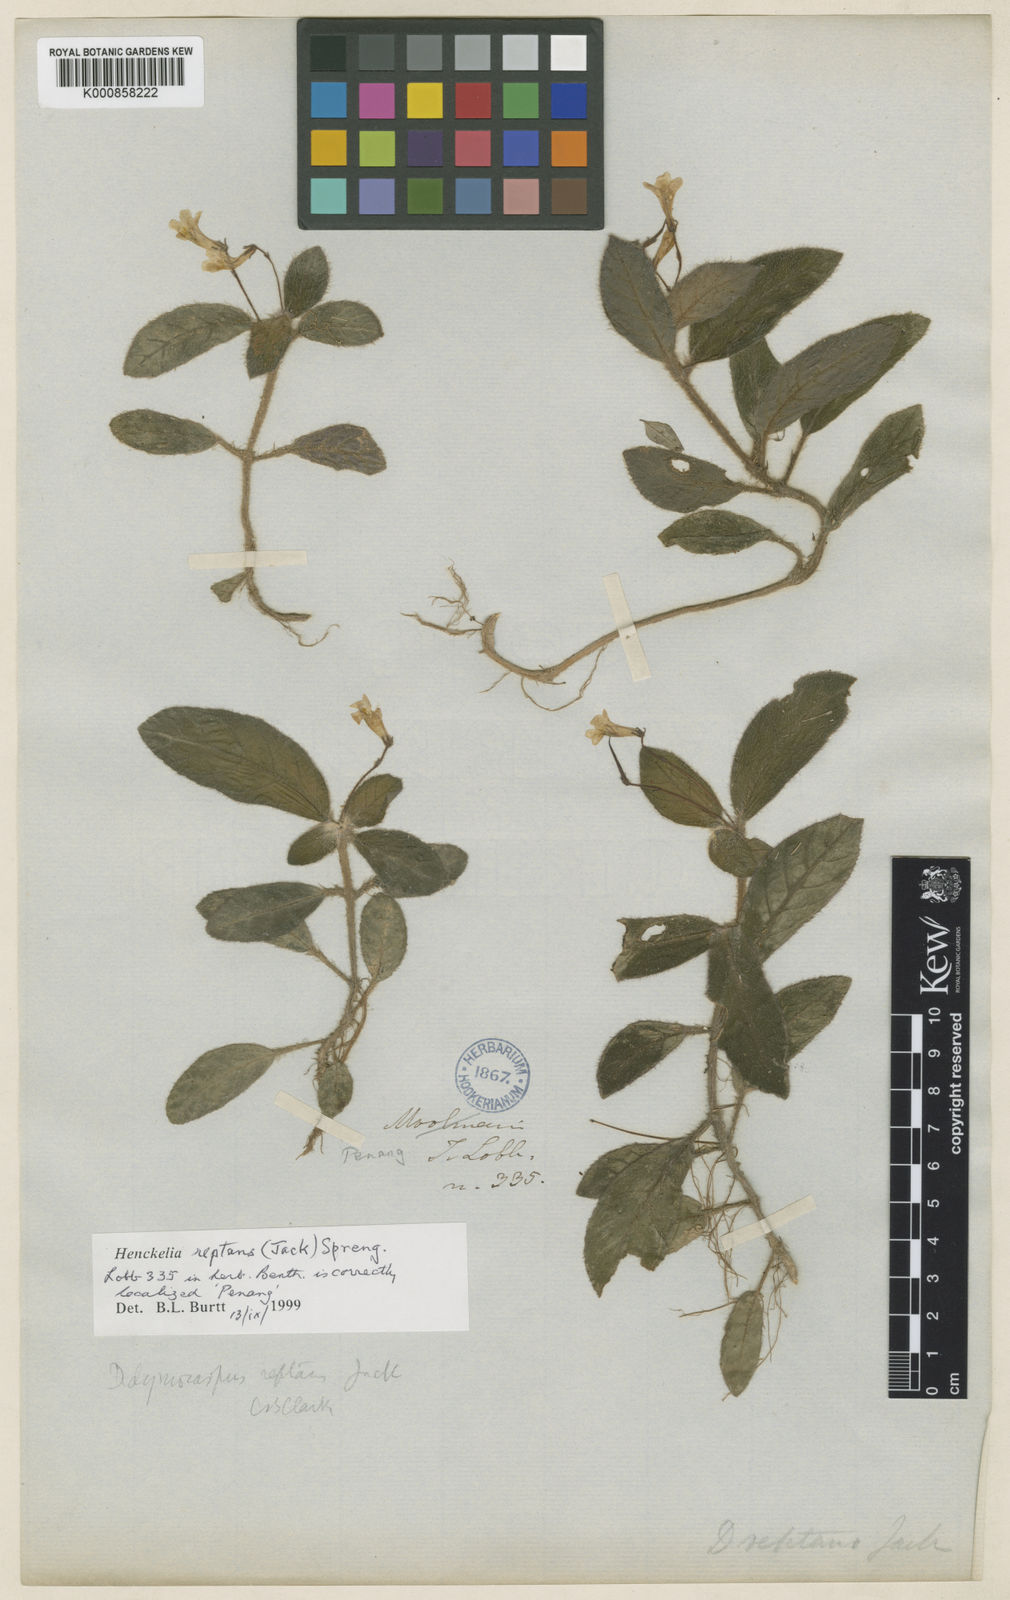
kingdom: Plantae
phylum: Tracheophyta
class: Magnoliopsida
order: Lamiales
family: Gesneriaceae
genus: Codonoboea
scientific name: Codonoboea reptans
